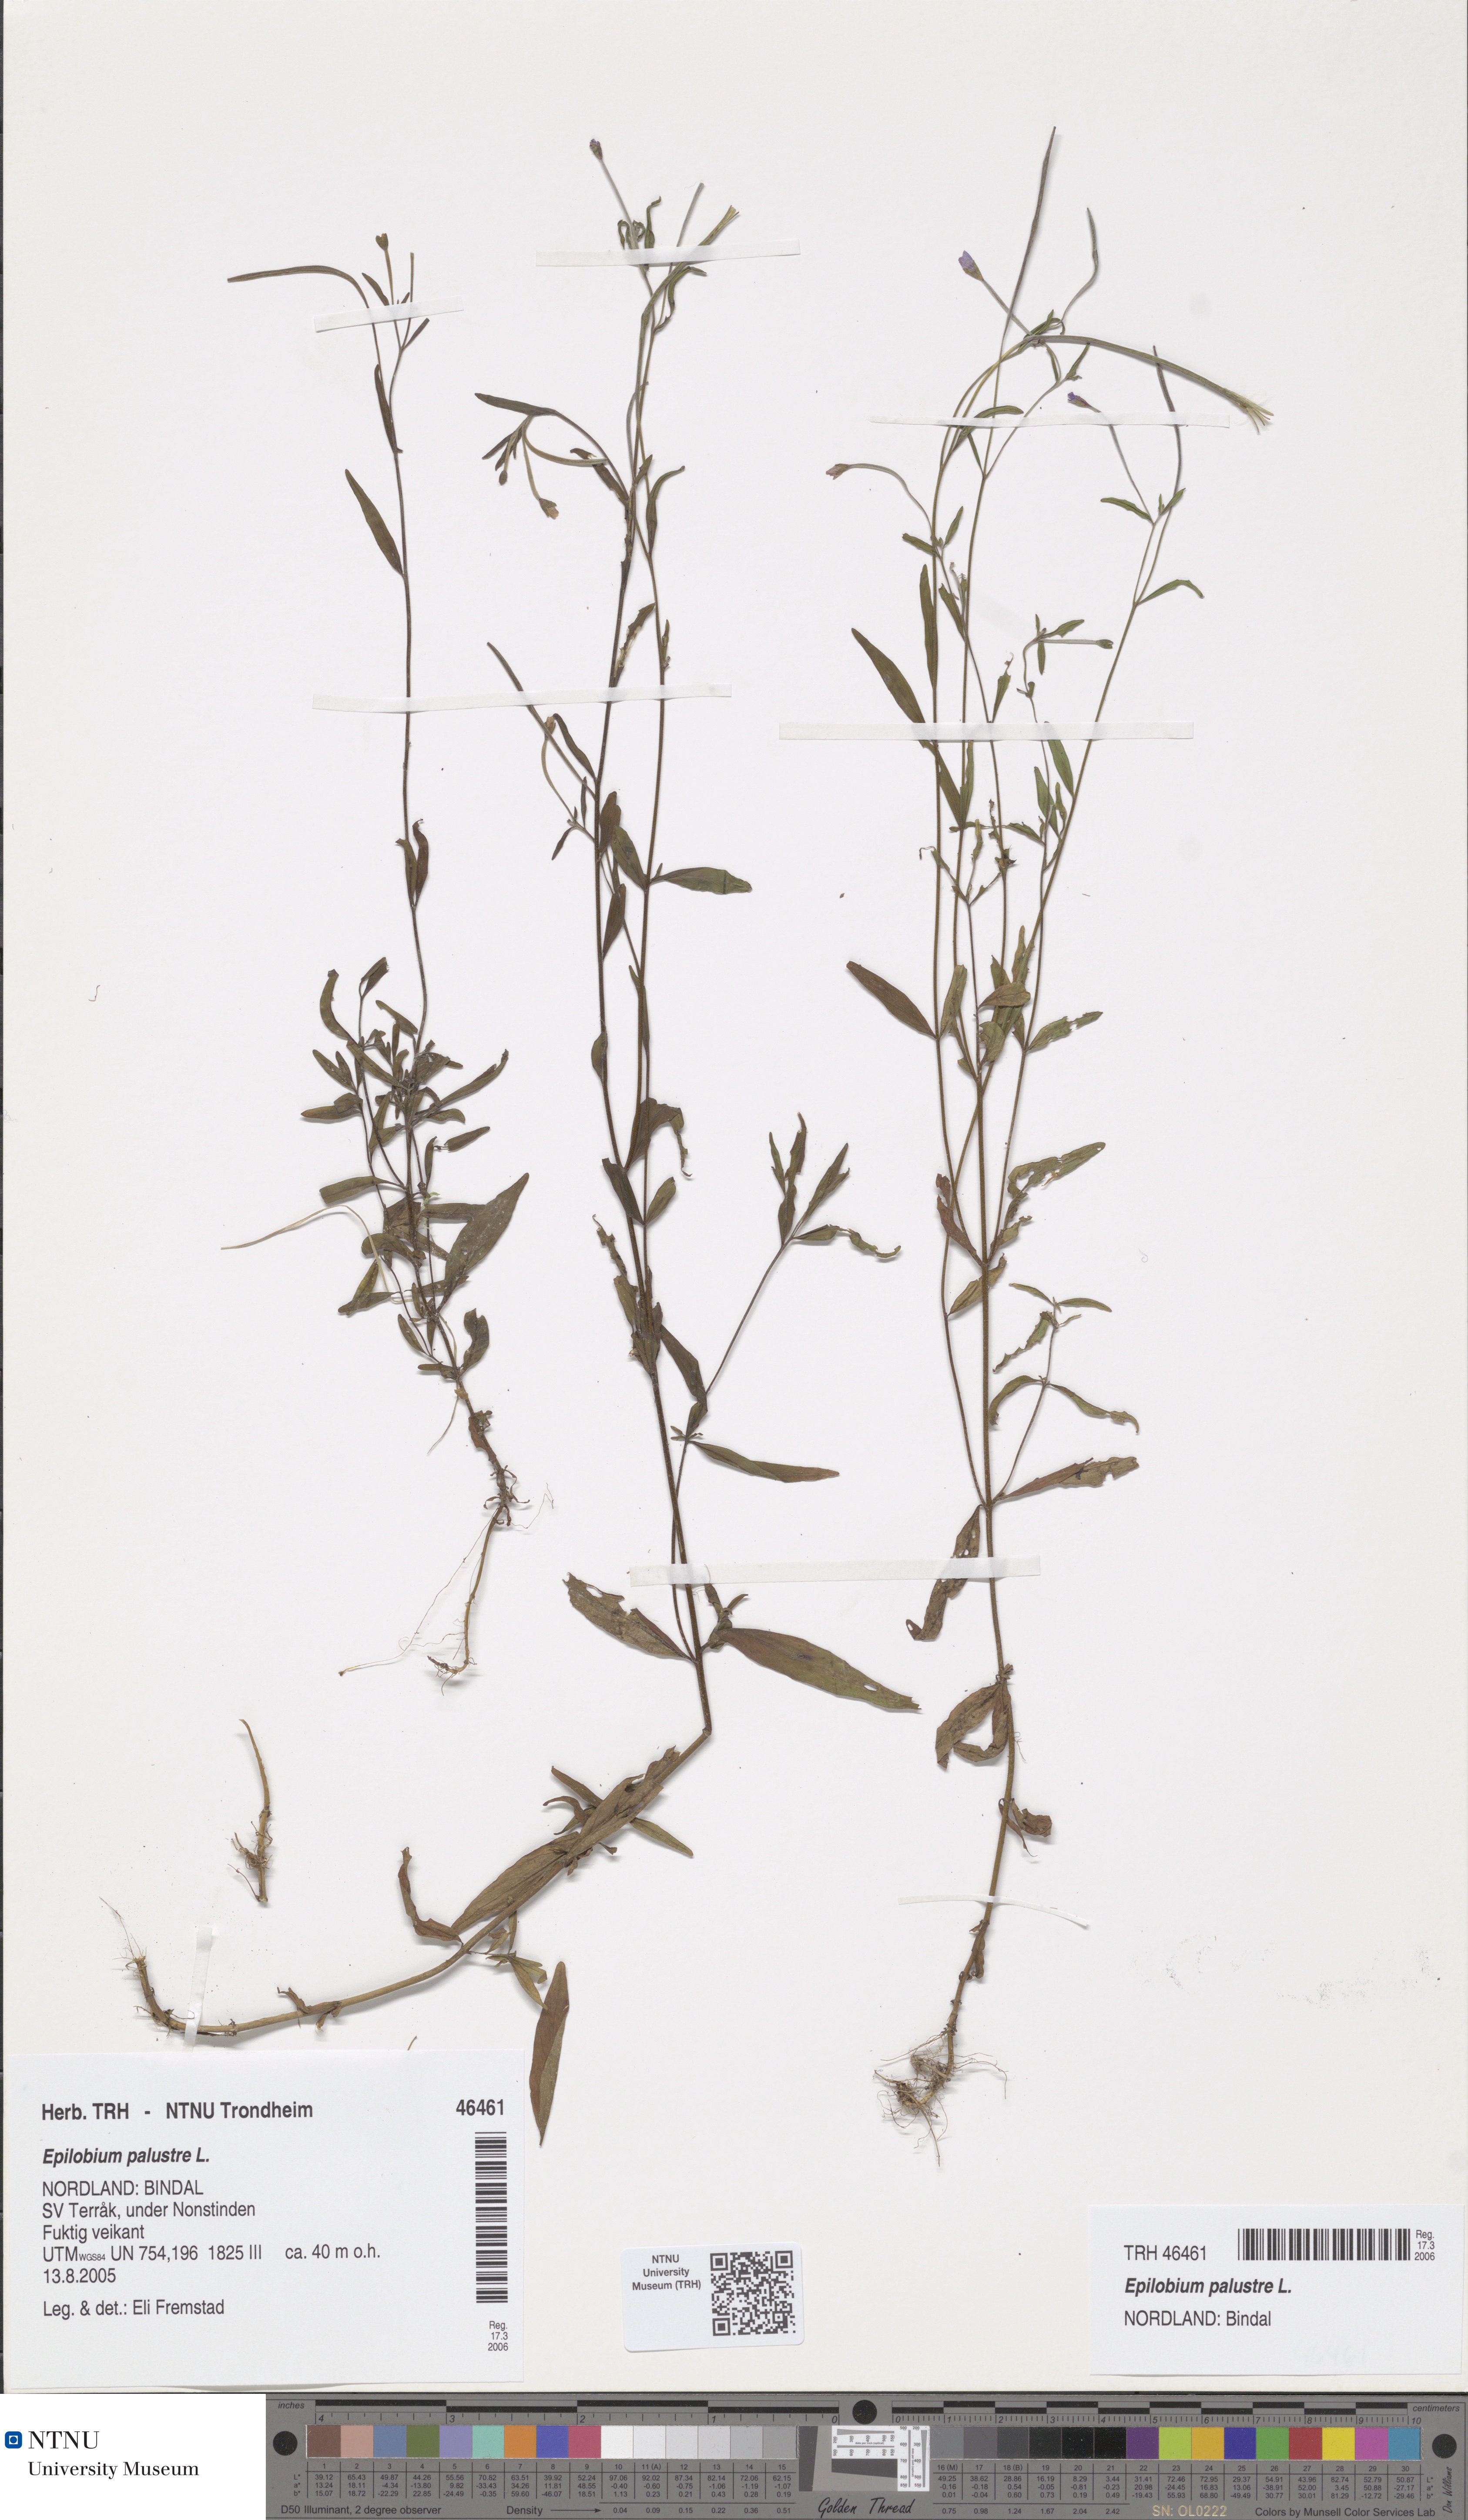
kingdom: Plantae
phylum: Tracheophyta
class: Magnoliopsida
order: Myrtales
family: Onagraceae
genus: Epilobium
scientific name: Epilobium palustre
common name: Marsh willowherb
